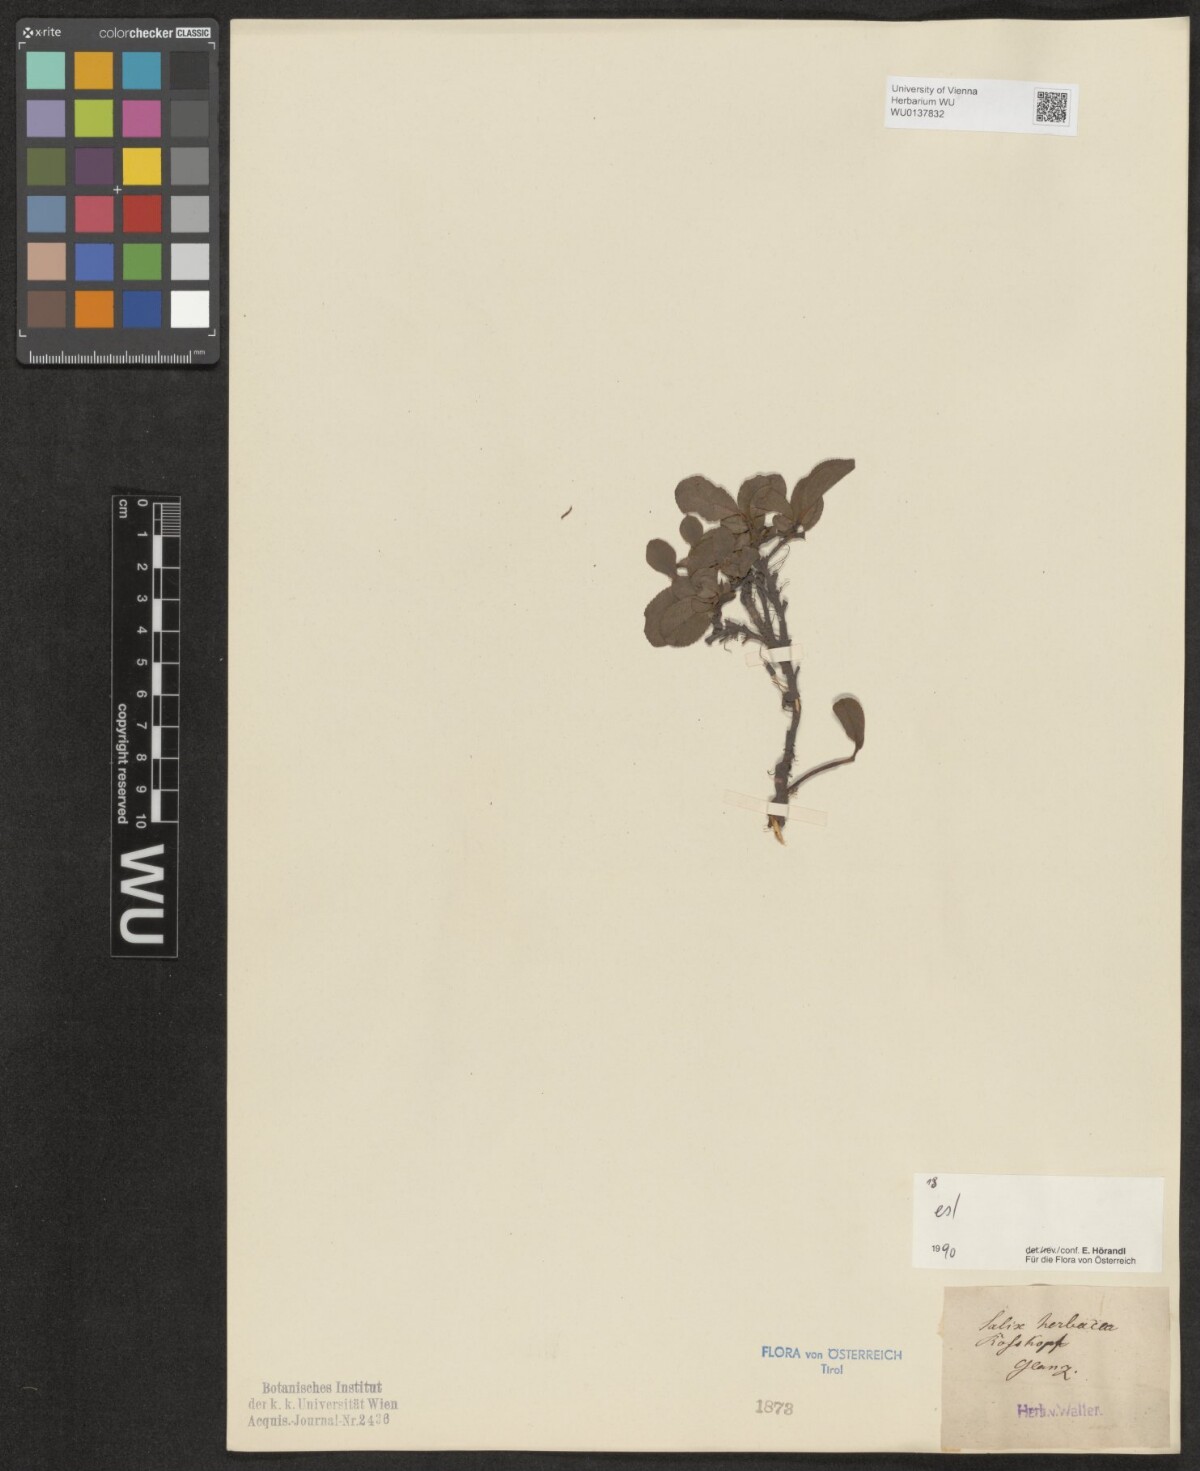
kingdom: Plantae
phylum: Tracheophyta
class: Magnoliopsida
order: Malpighiales
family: Salicaceae
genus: Salix
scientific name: Salix herbacea
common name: Dwarf willow
